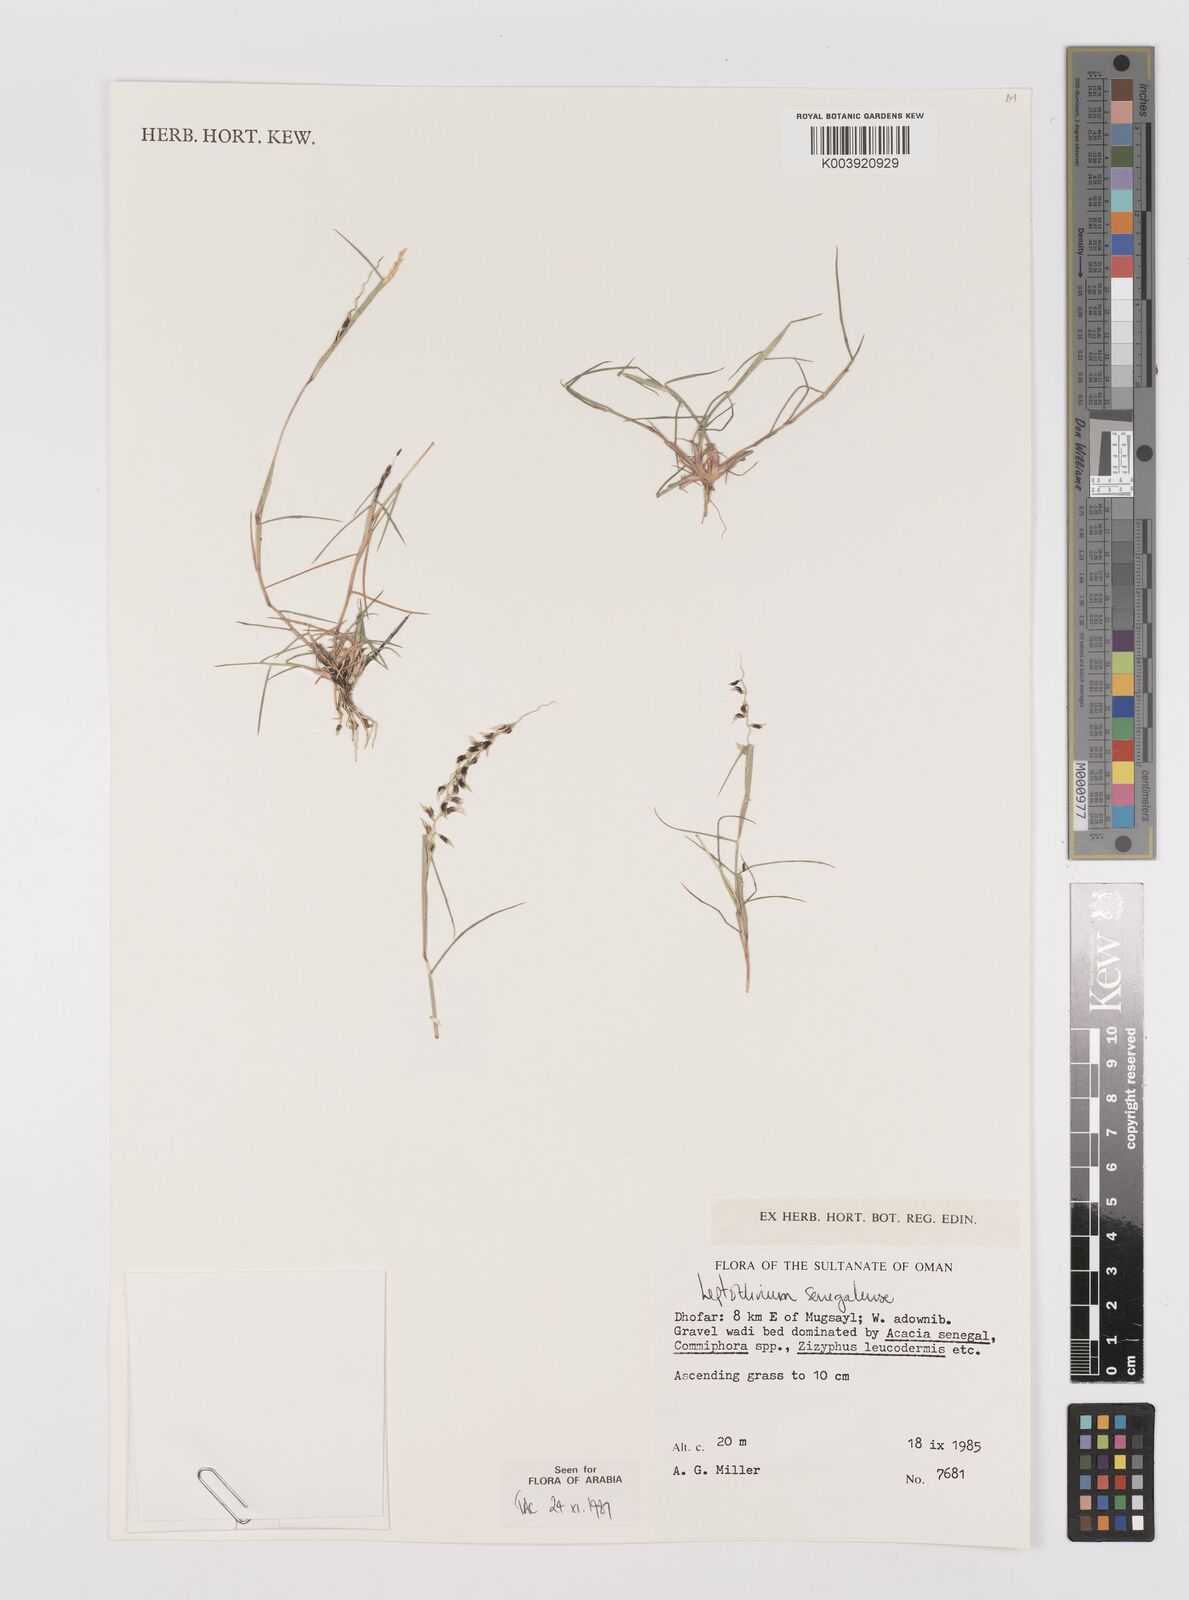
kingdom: Plantae
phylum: Tracheophyta
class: Liliopsida
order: Poales
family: Poaceae
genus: Leptothrium
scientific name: Leptothrium senegalense
